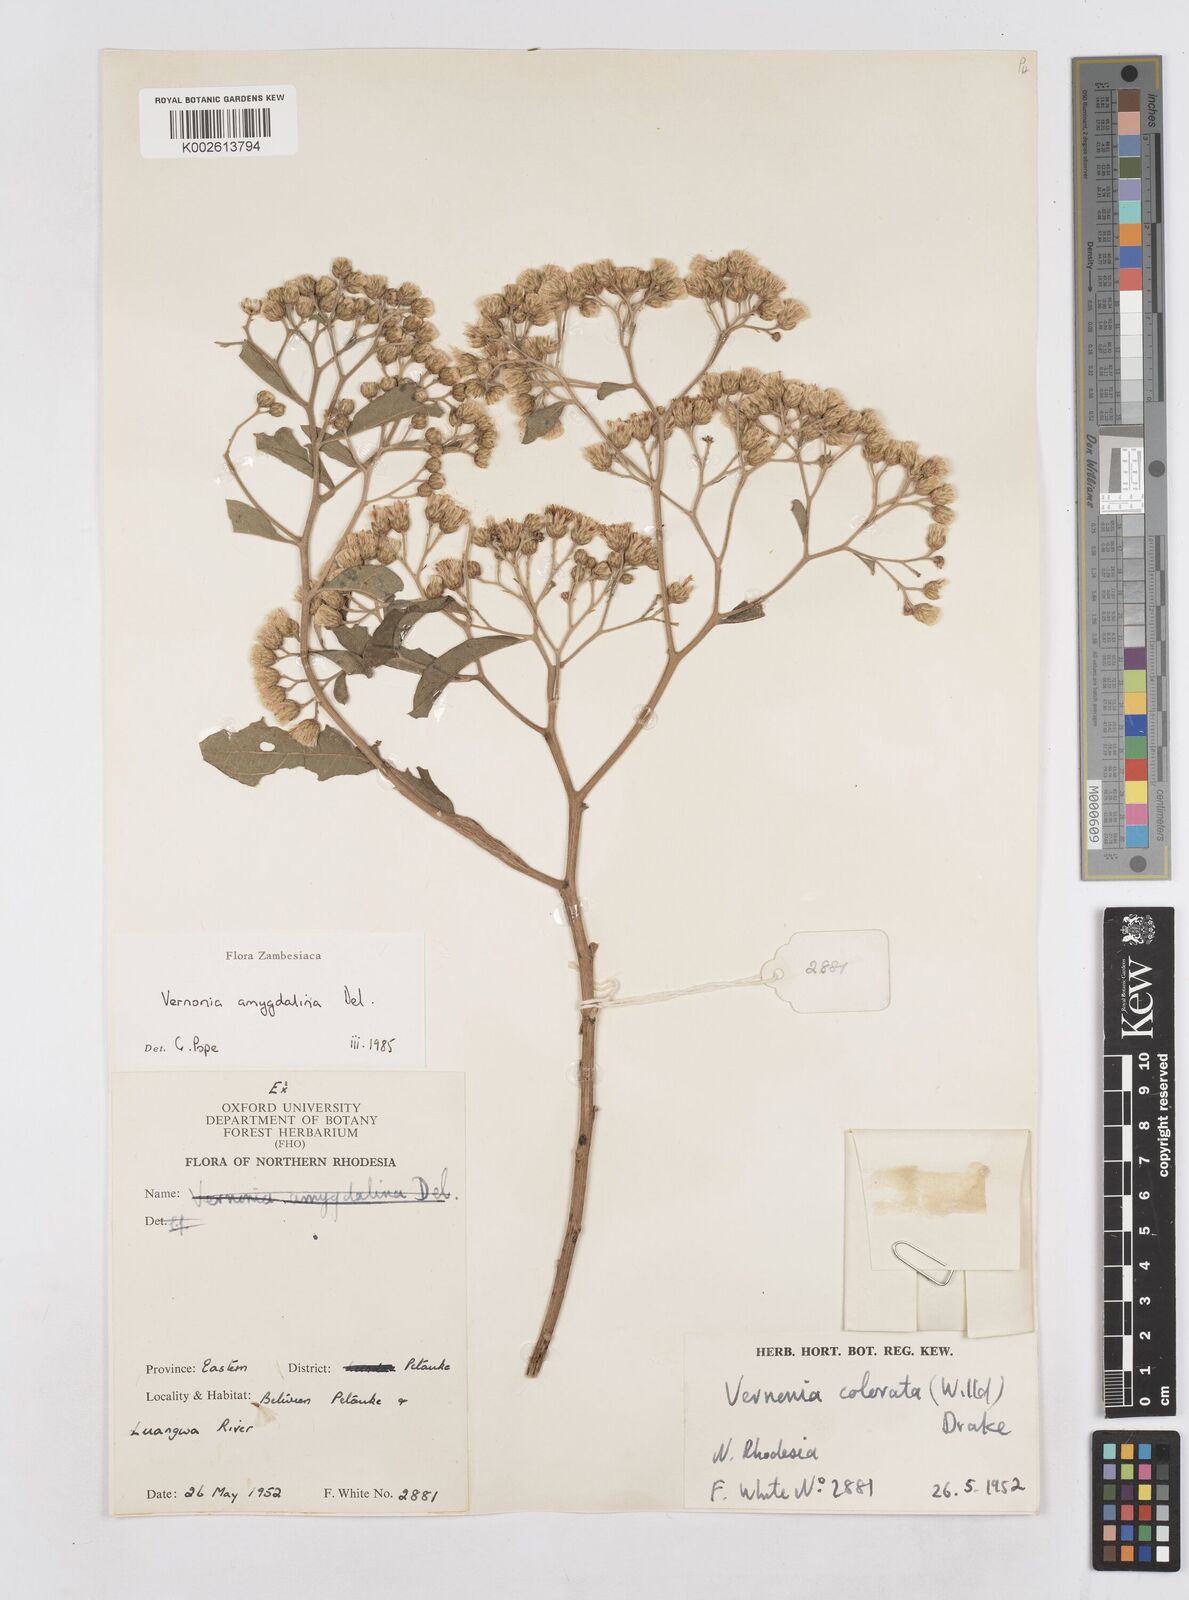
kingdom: Plantae
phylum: Tracheophyta
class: Magnoliopsida
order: Asterales
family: Asteraceae
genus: Gymnanthemum
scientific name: Gymnanthemum amygdalinum
